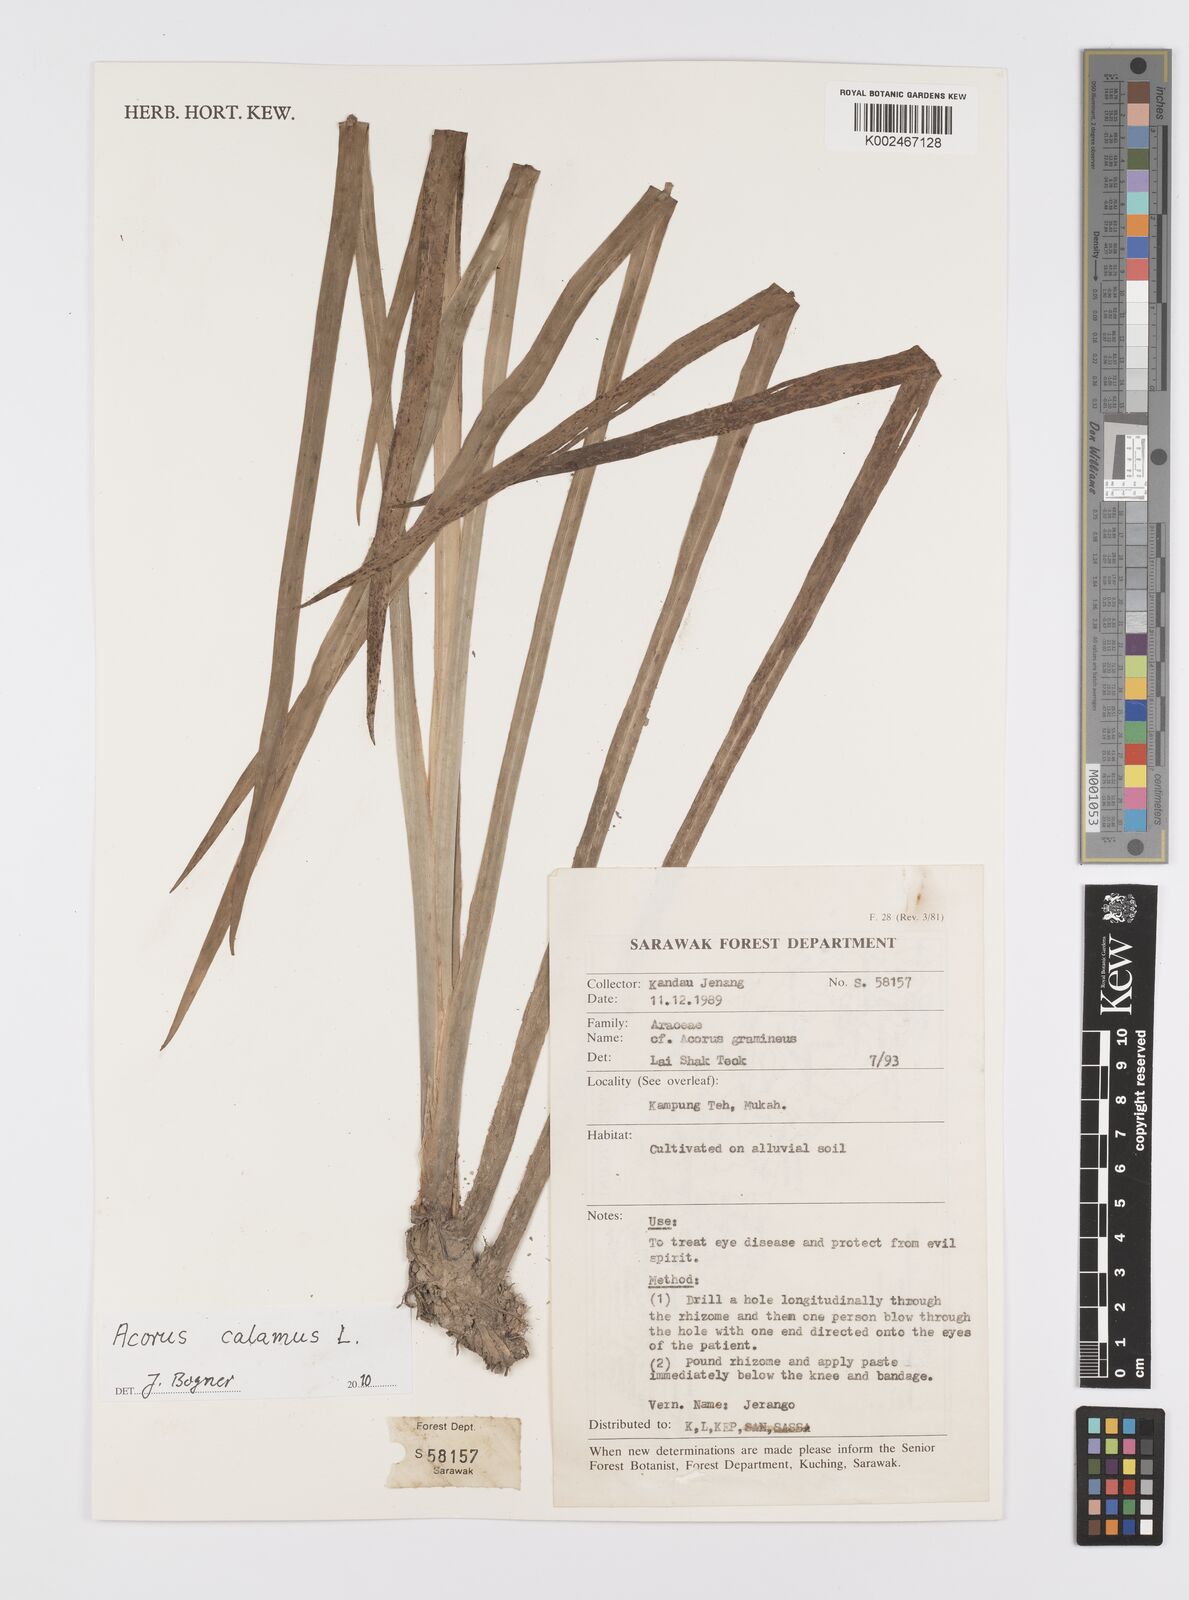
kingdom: Plantae
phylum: Tracheophyta
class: Liliopsida
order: Acorales
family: Acoraceae
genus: Acorus
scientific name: Acorus calamus
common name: Sweet-flag
